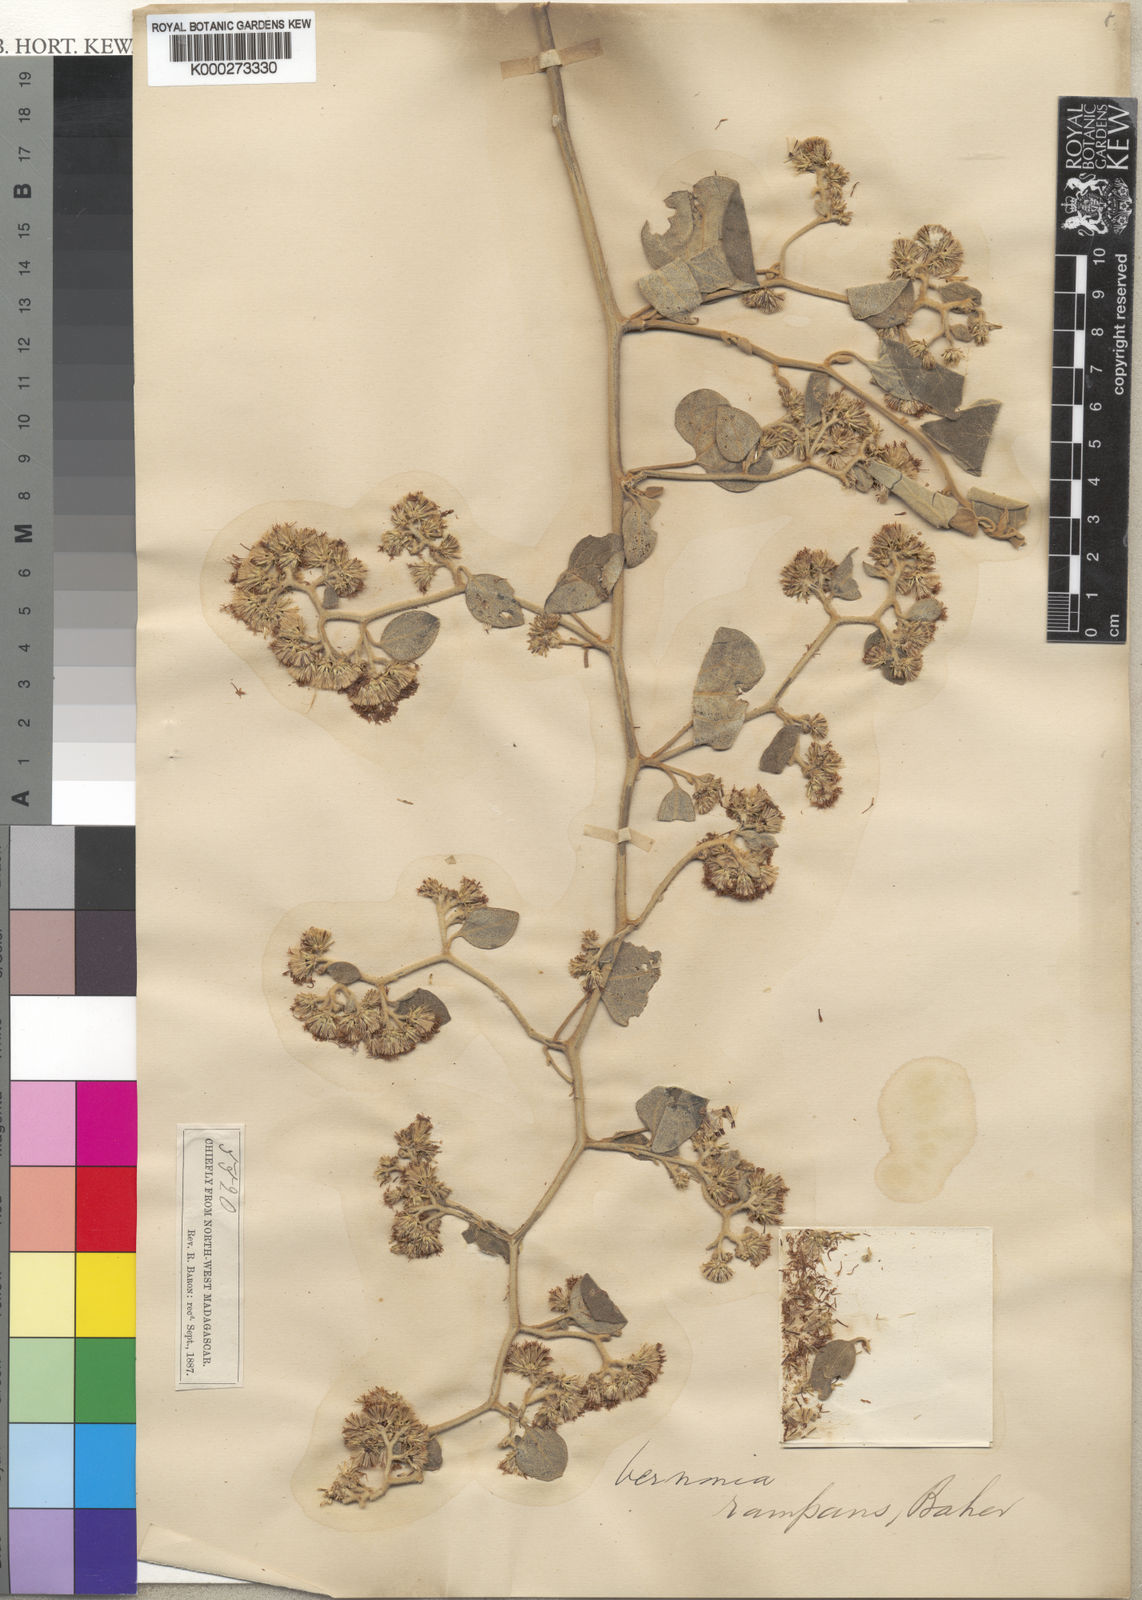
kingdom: Plantae
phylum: Tracheophyta
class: Magnoliopsida
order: Asterales
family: Asteraceae
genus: Distephanus
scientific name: Distephanus malacophytus
